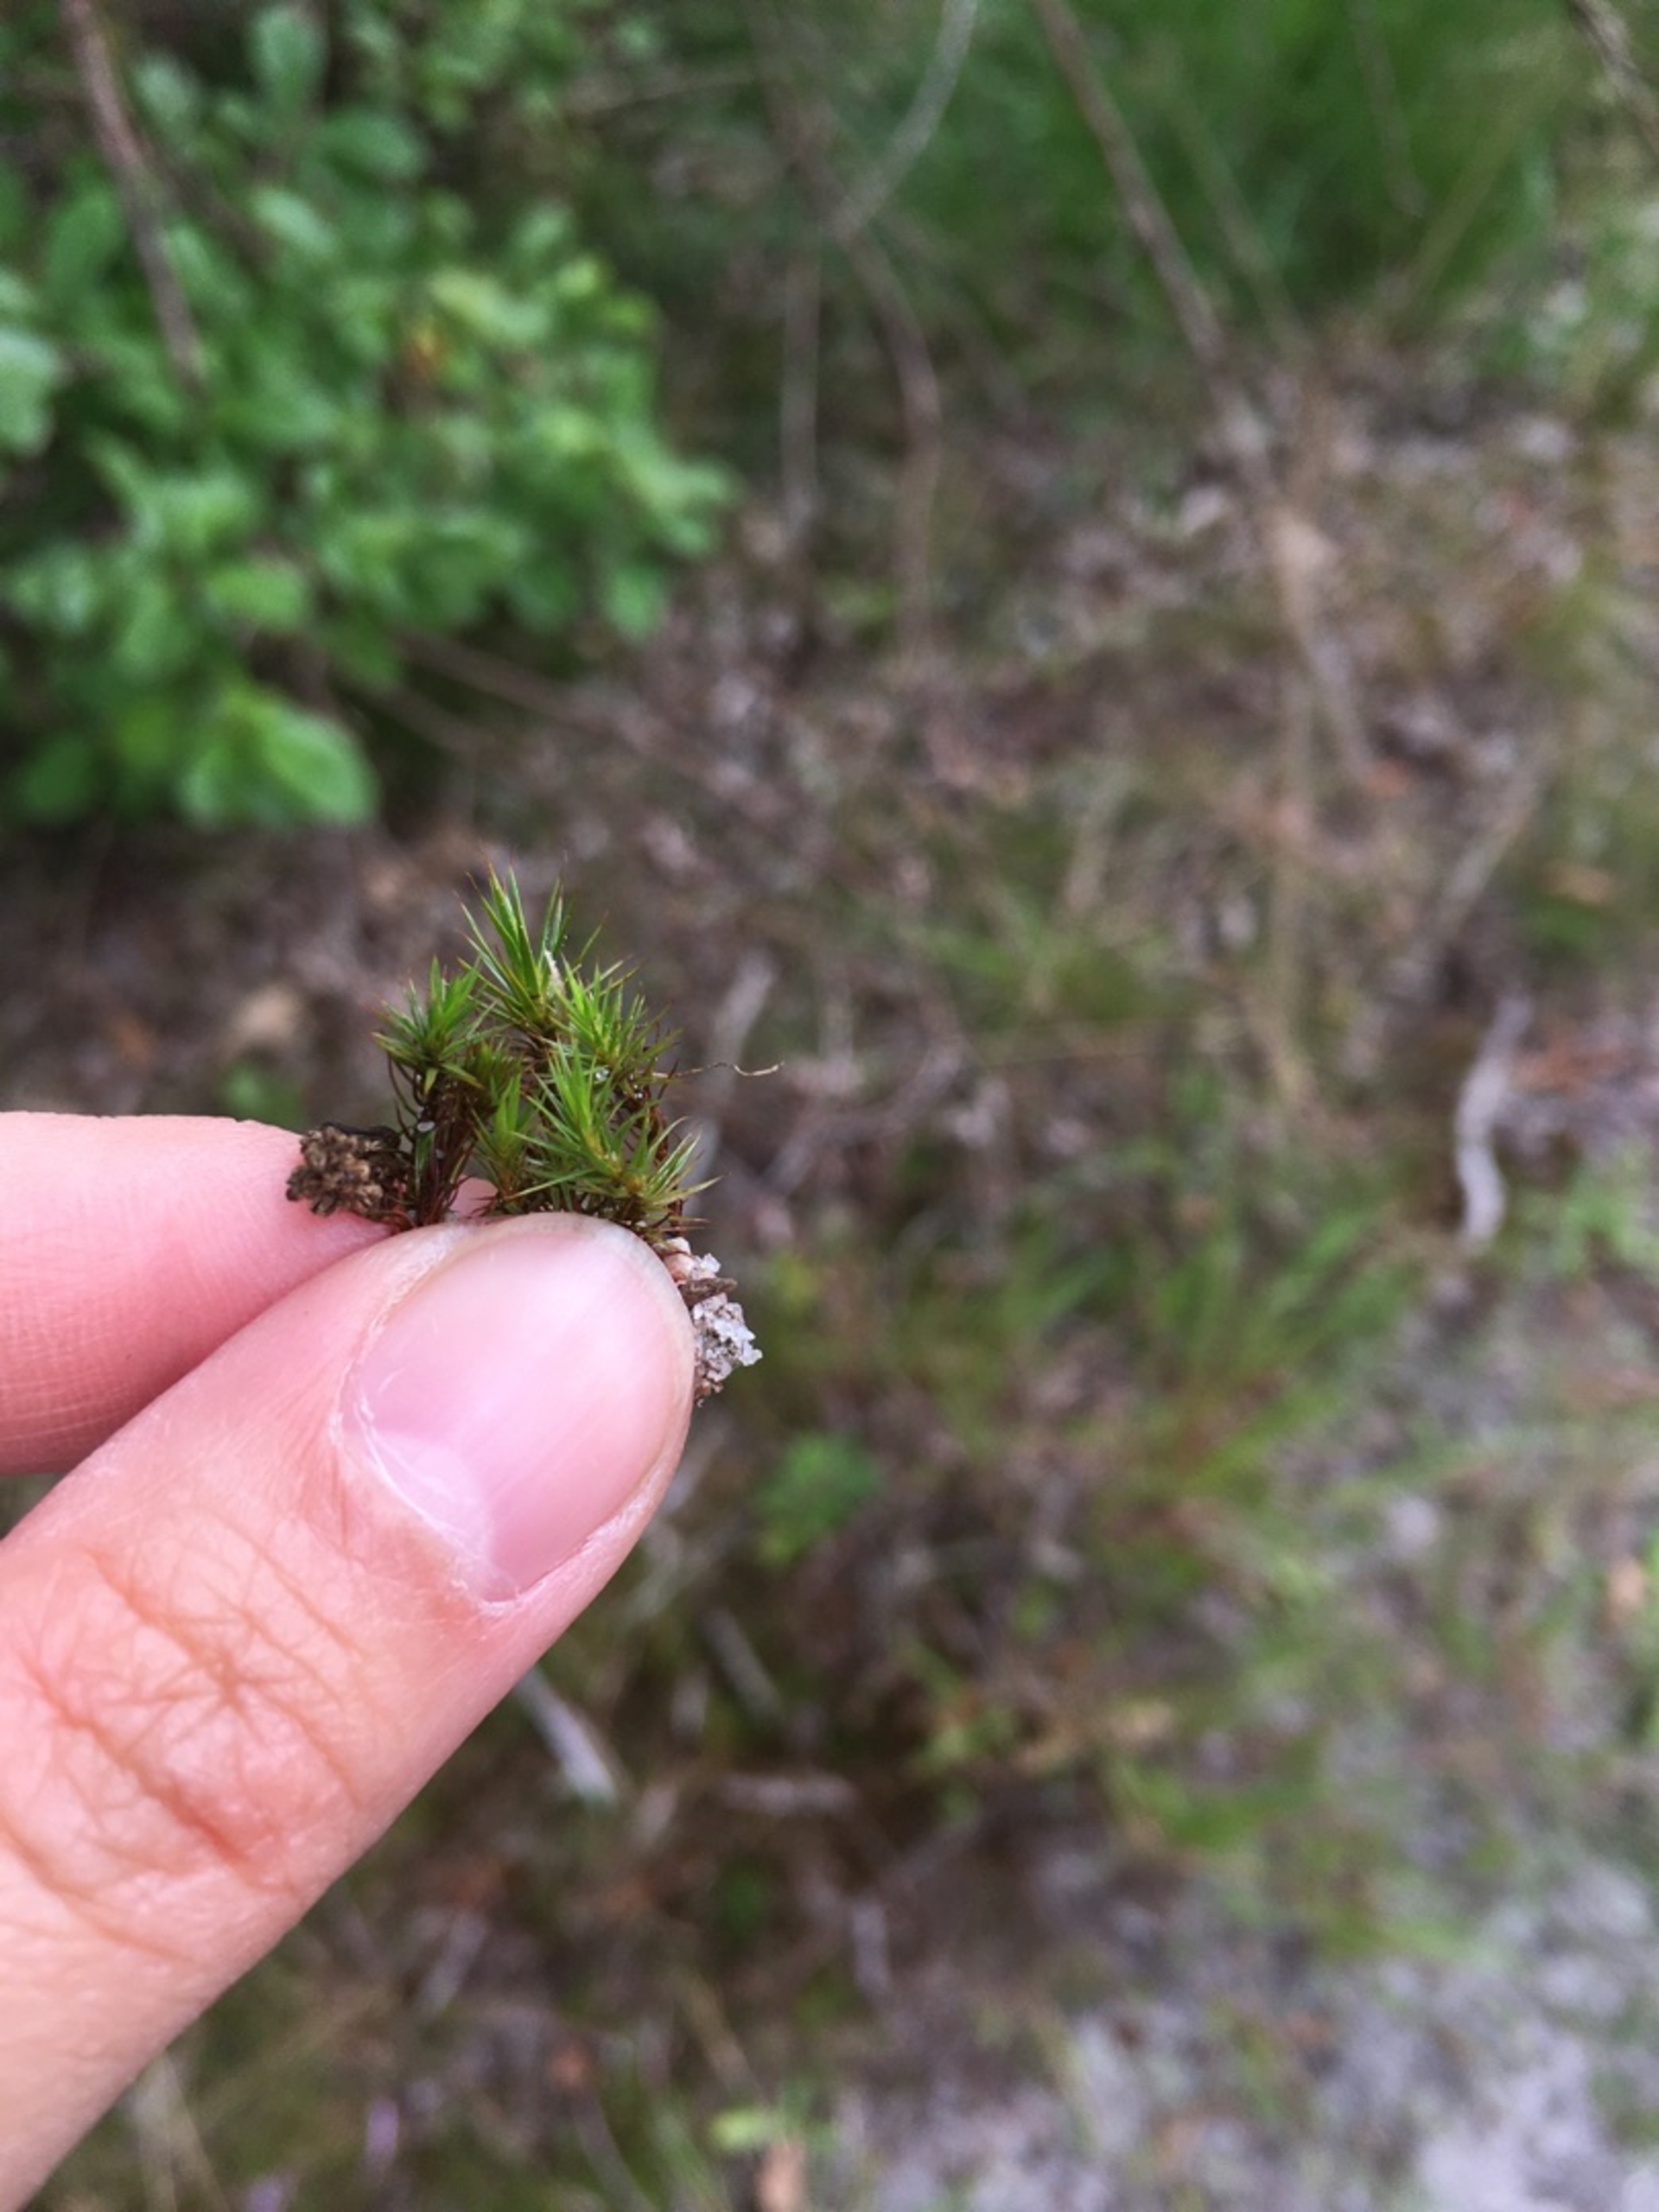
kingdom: Plantae
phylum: Bryophyta
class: Polytrichopsida
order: Polytrichales
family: Polytrichaceae
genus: Polytrichum
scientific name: Polytrichum juniperinum
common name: Ene-jomfruhår
